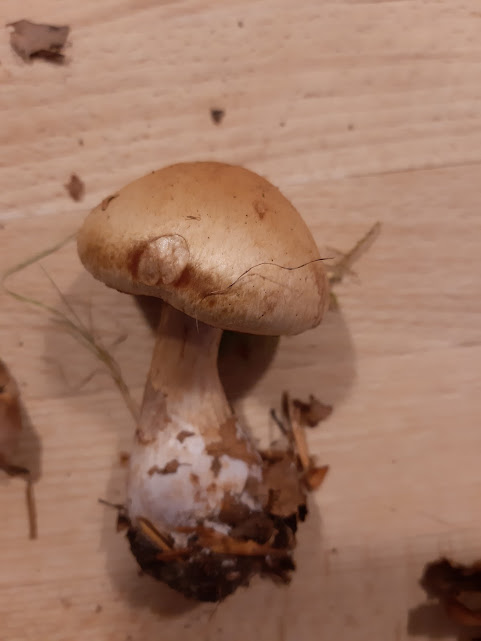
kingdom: Fungi
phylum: Basidiomycota
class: Agaricomycetes
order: Agaricales
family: Cortinariaceae
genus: Cortinarius
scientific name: Cortinarius largus
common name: violetrandet slørhat
